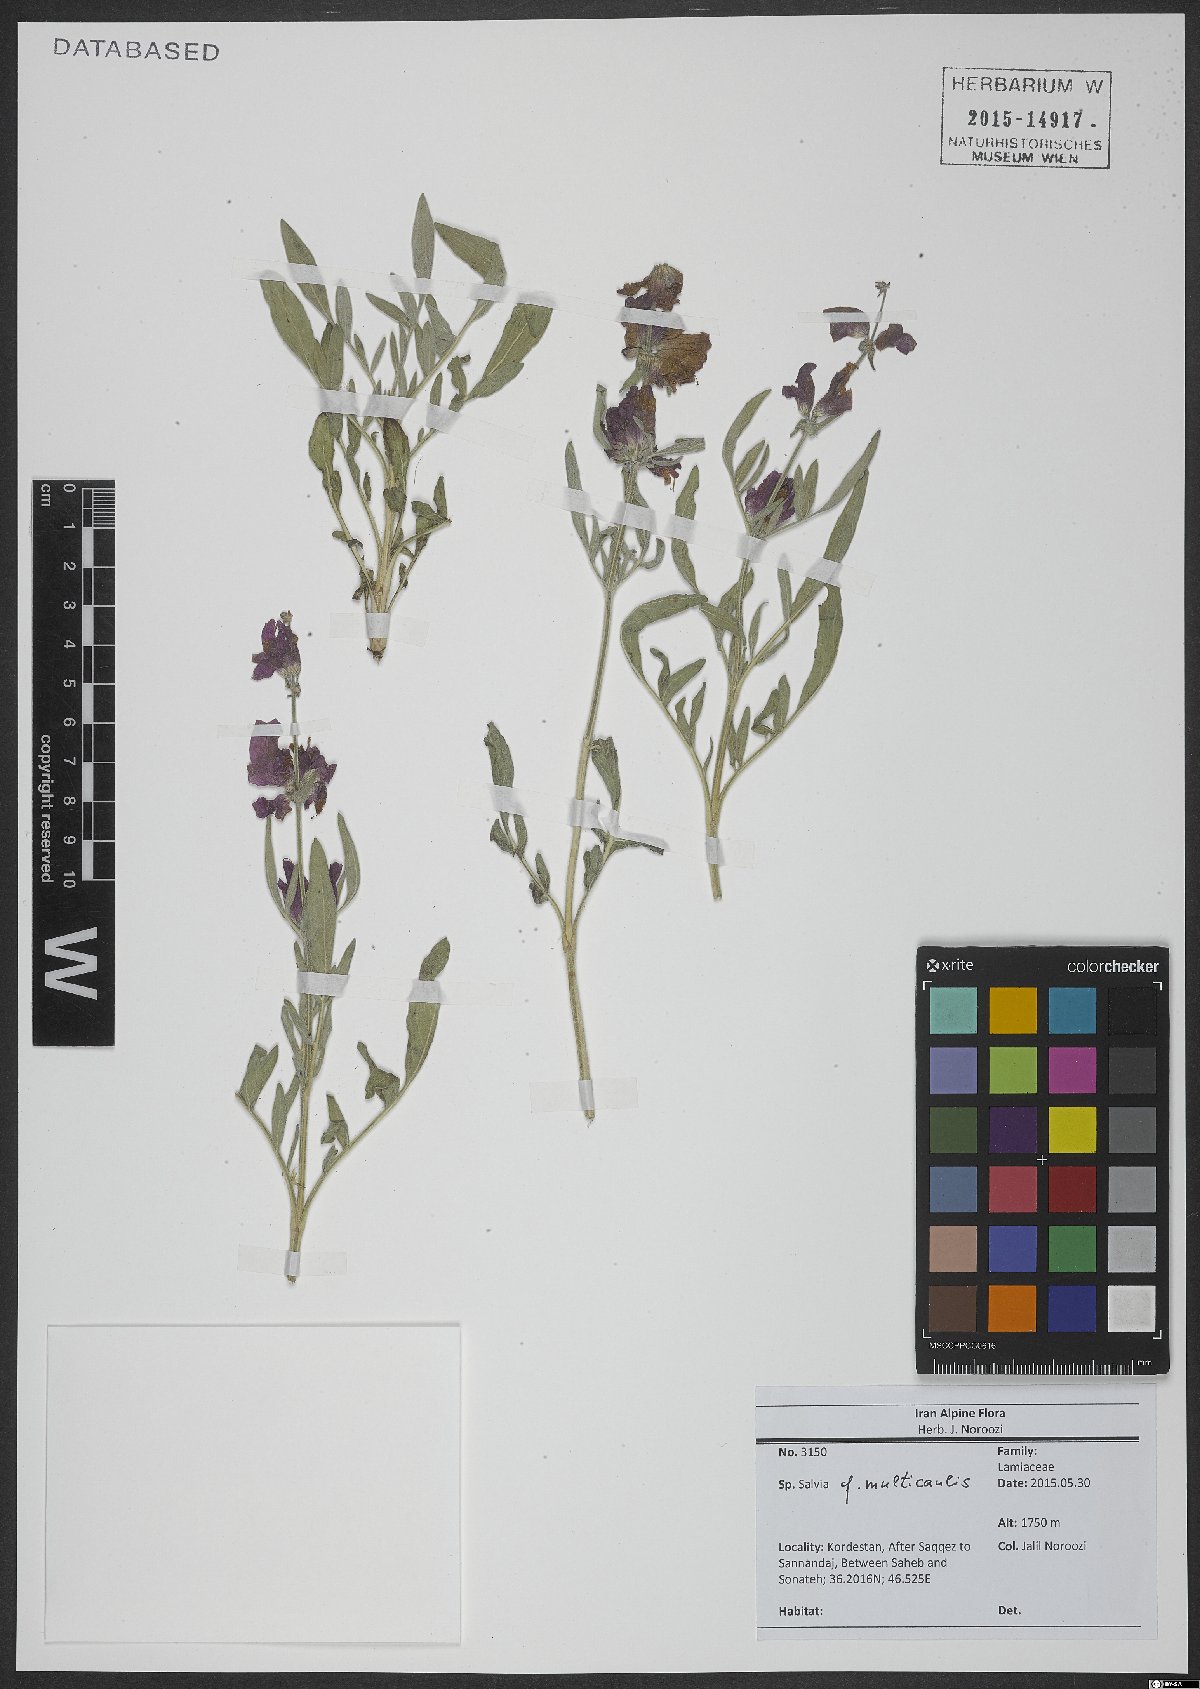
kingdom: Plantae
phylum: Tracheophyta
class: Magnoliopsida
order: Lamiales
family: Lamiaceae
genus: Salvia
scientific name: Salvia multicaulis
